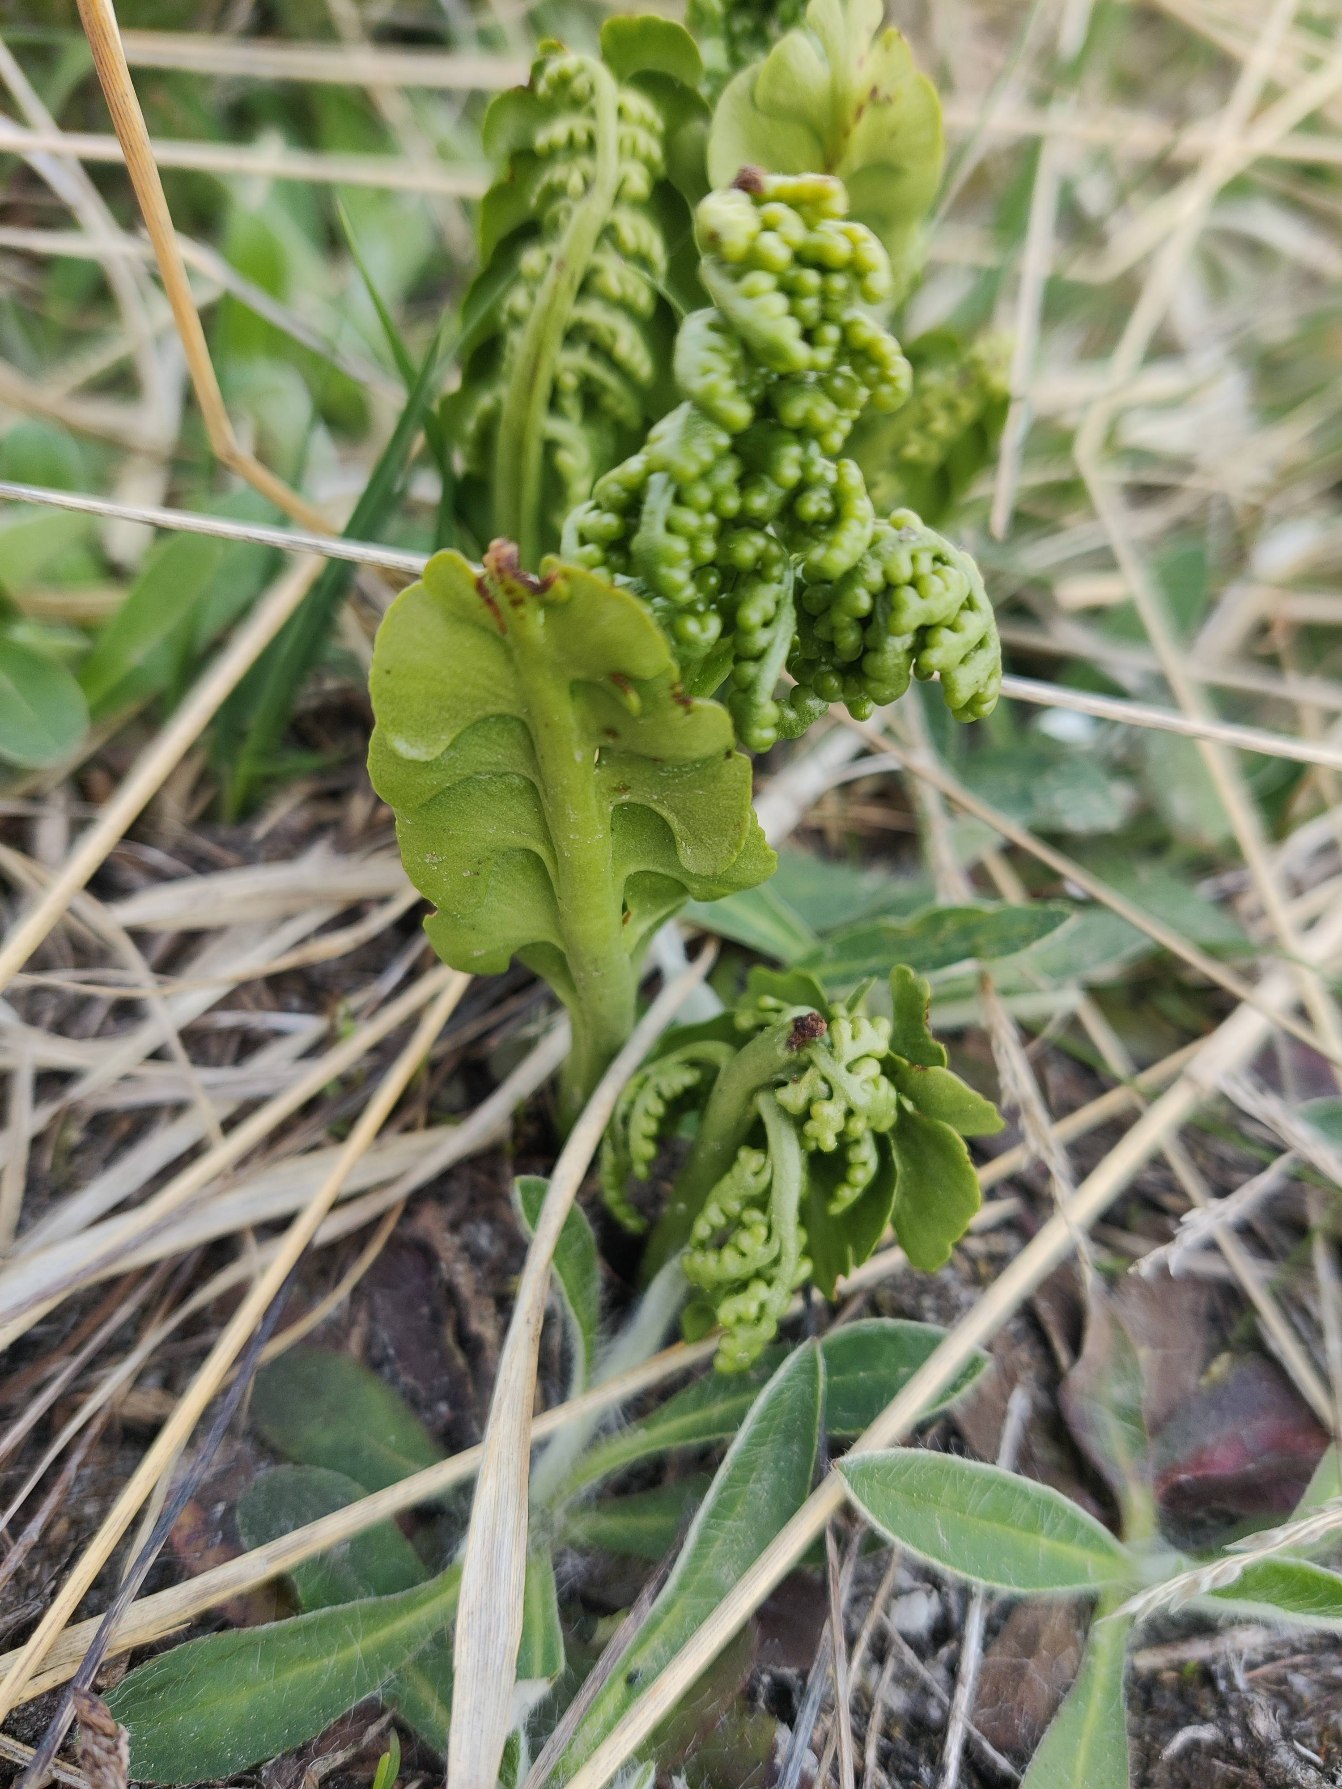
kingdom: Plantae
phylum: Tracheophyta
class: Polypodiopsida
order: Ophioglossales
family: Ophioglossaceae
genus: Botrychium
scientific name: Botrychium lunaria
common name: Almindelig månerude
